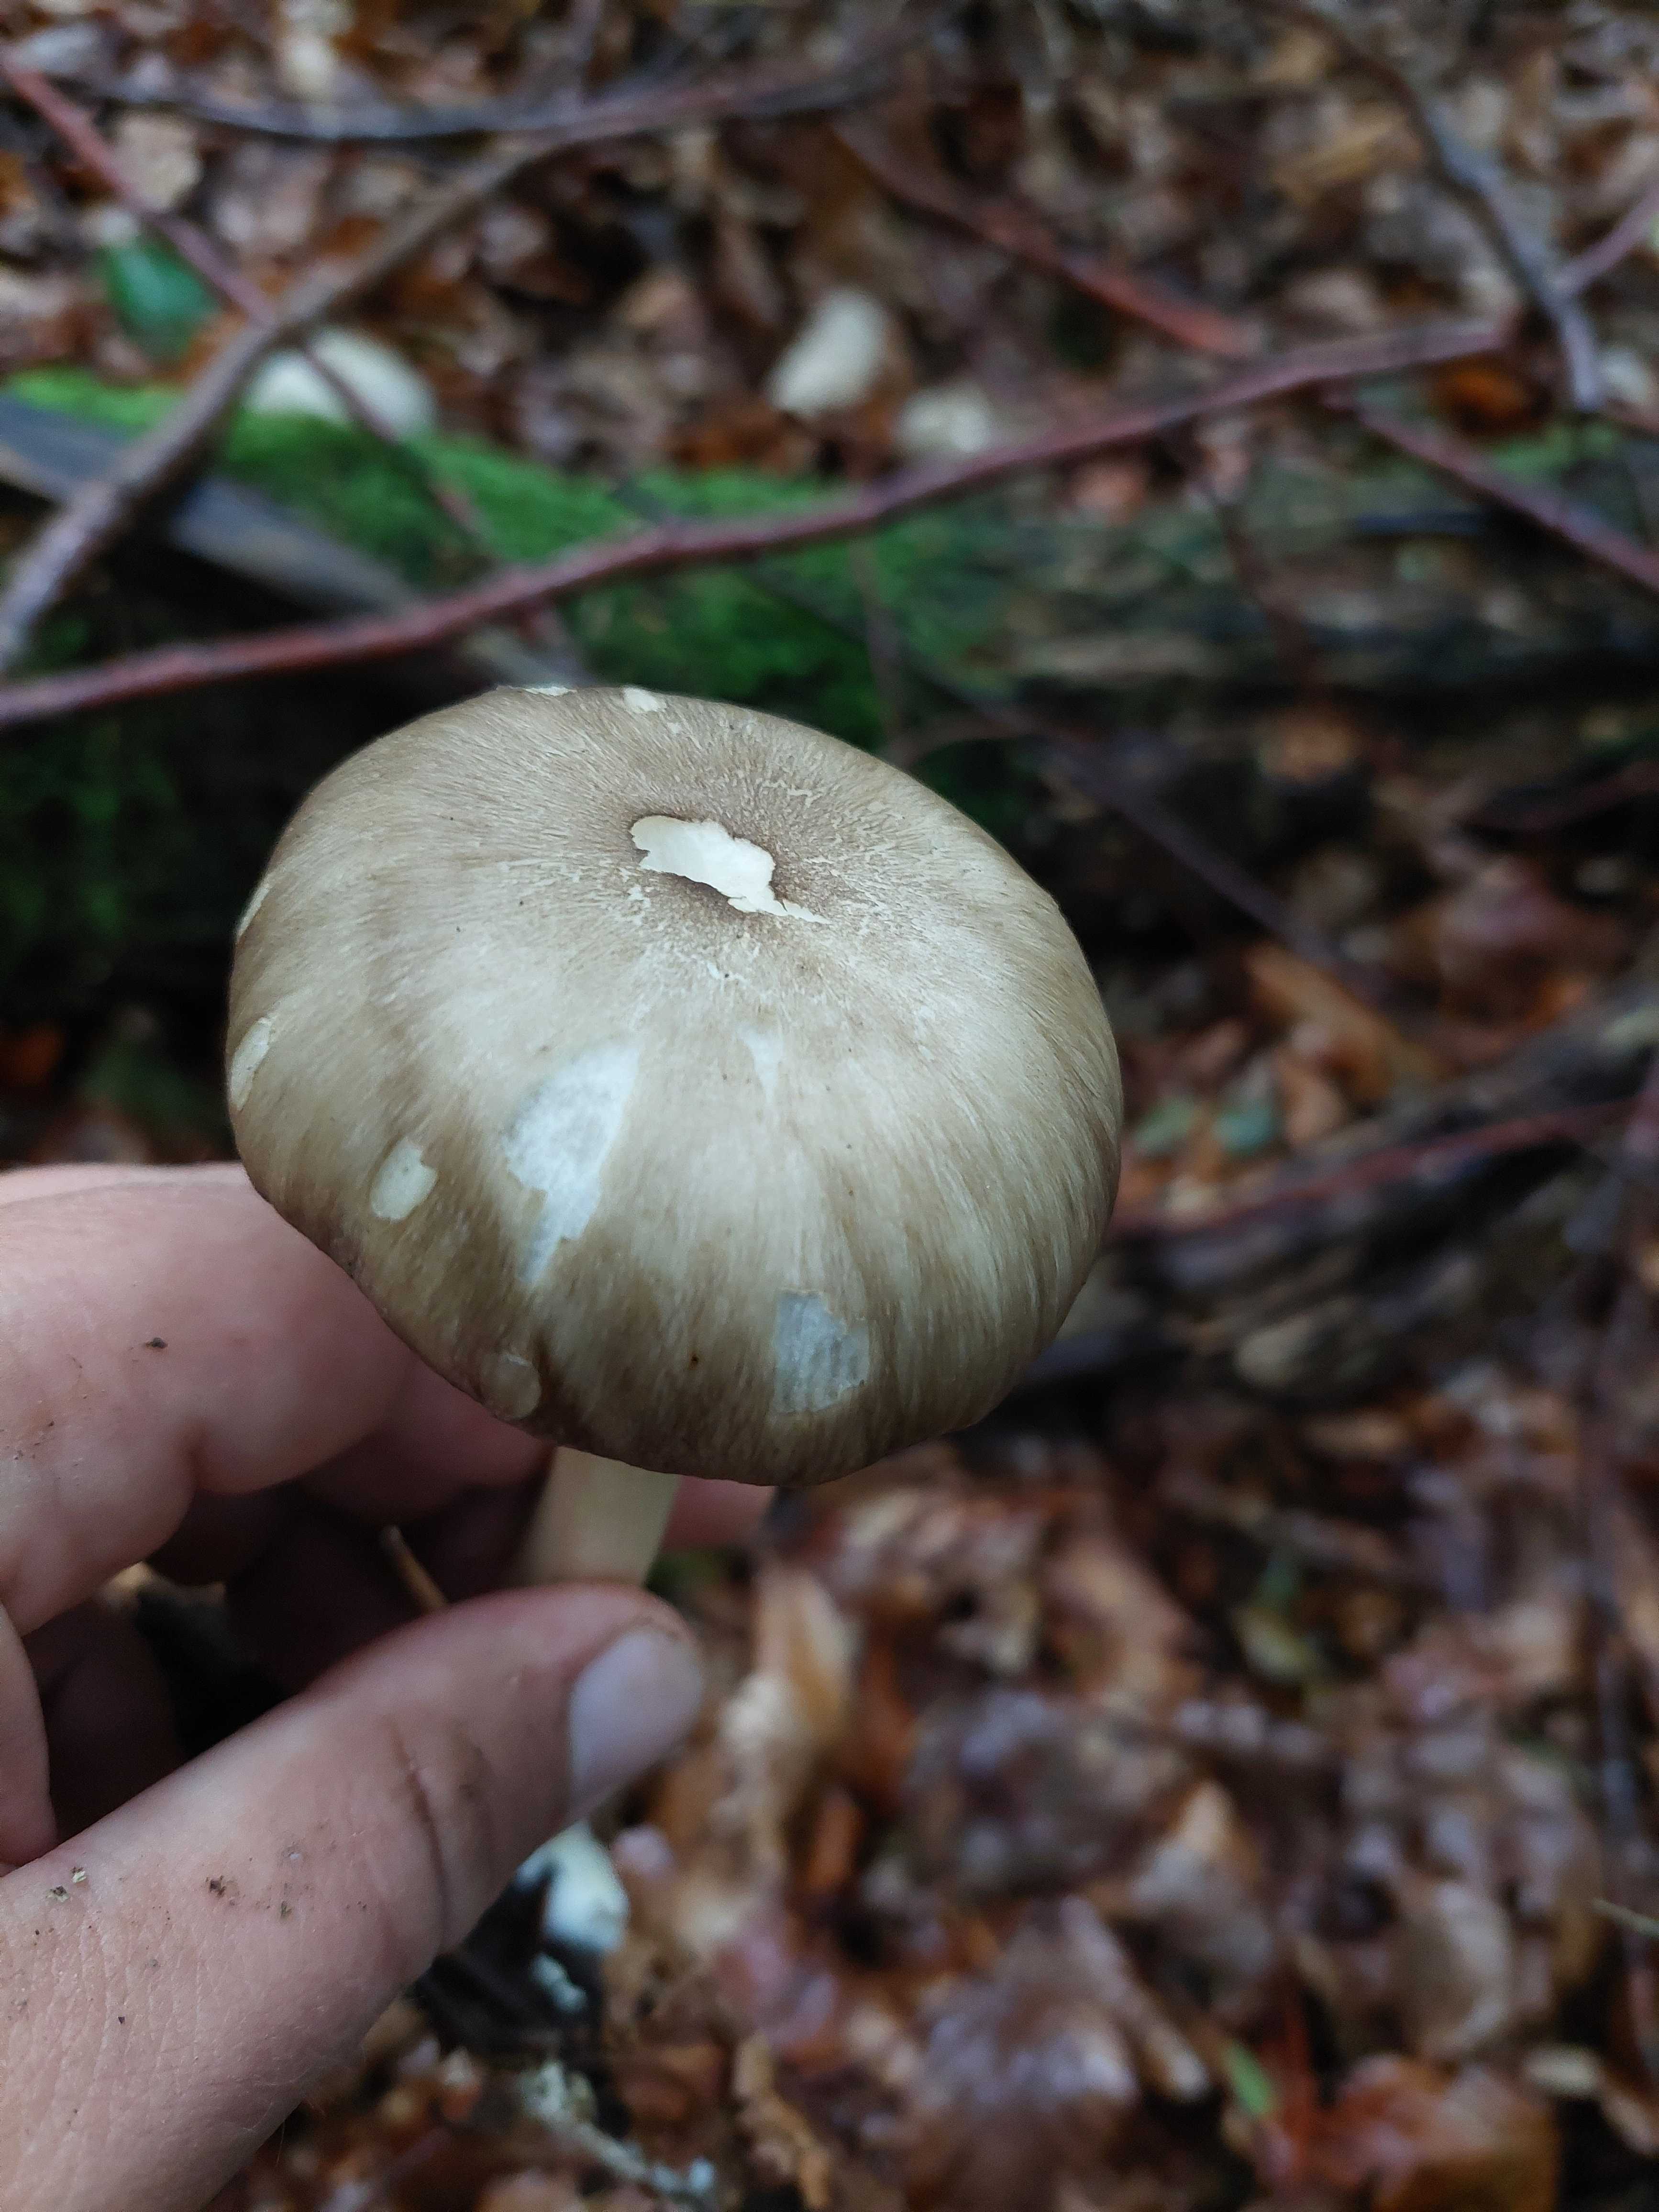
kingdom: Fungi
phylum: Basidiomycota
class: Agaricomycetes
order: Agaricales
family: Tricholomataceae
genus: Megacollybia
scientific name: Megacollybia platyphylla
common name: bredbladet væbnerhat
